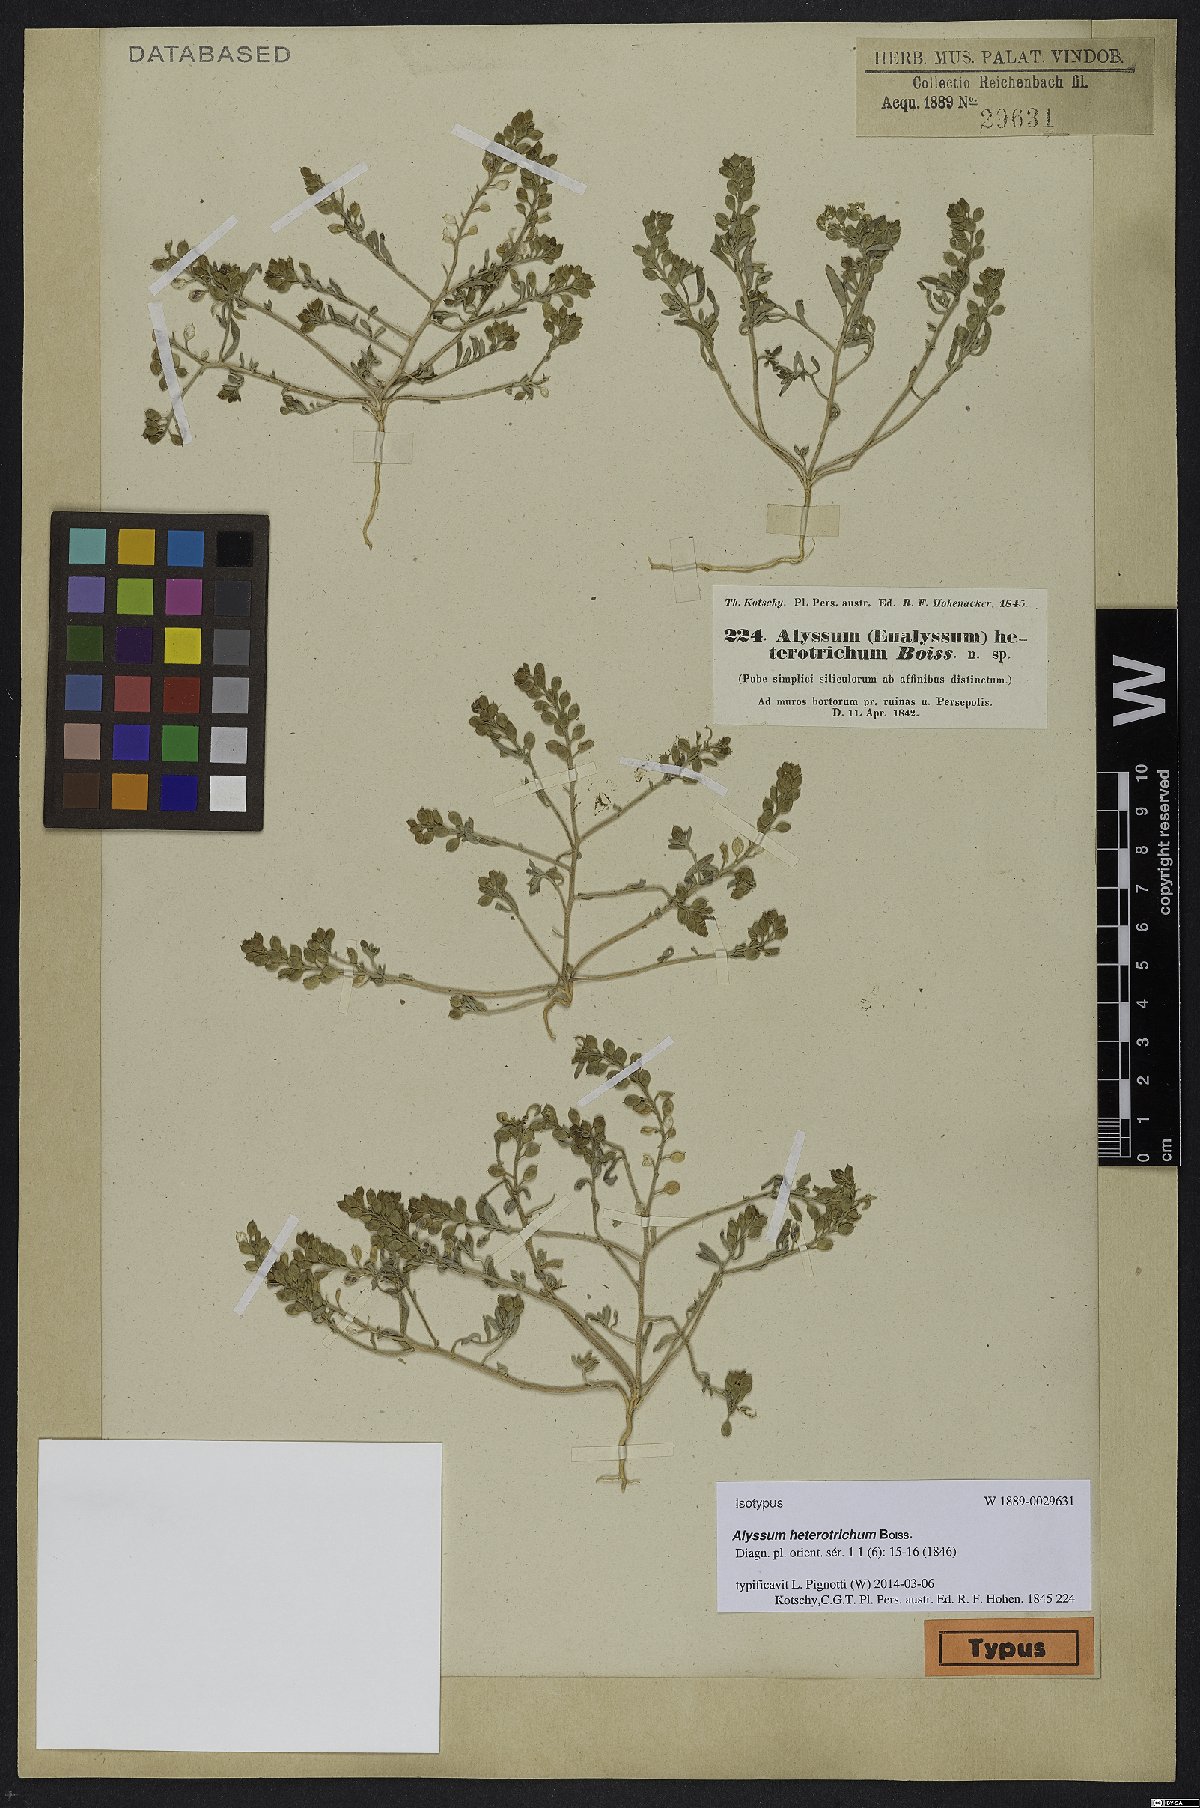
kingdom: Plantae
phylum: Tracheophyta
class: Magnoliopsida
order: Brassicales
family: Brassicaceae
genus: Meniocus
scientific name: Meniocus heterotrichus
